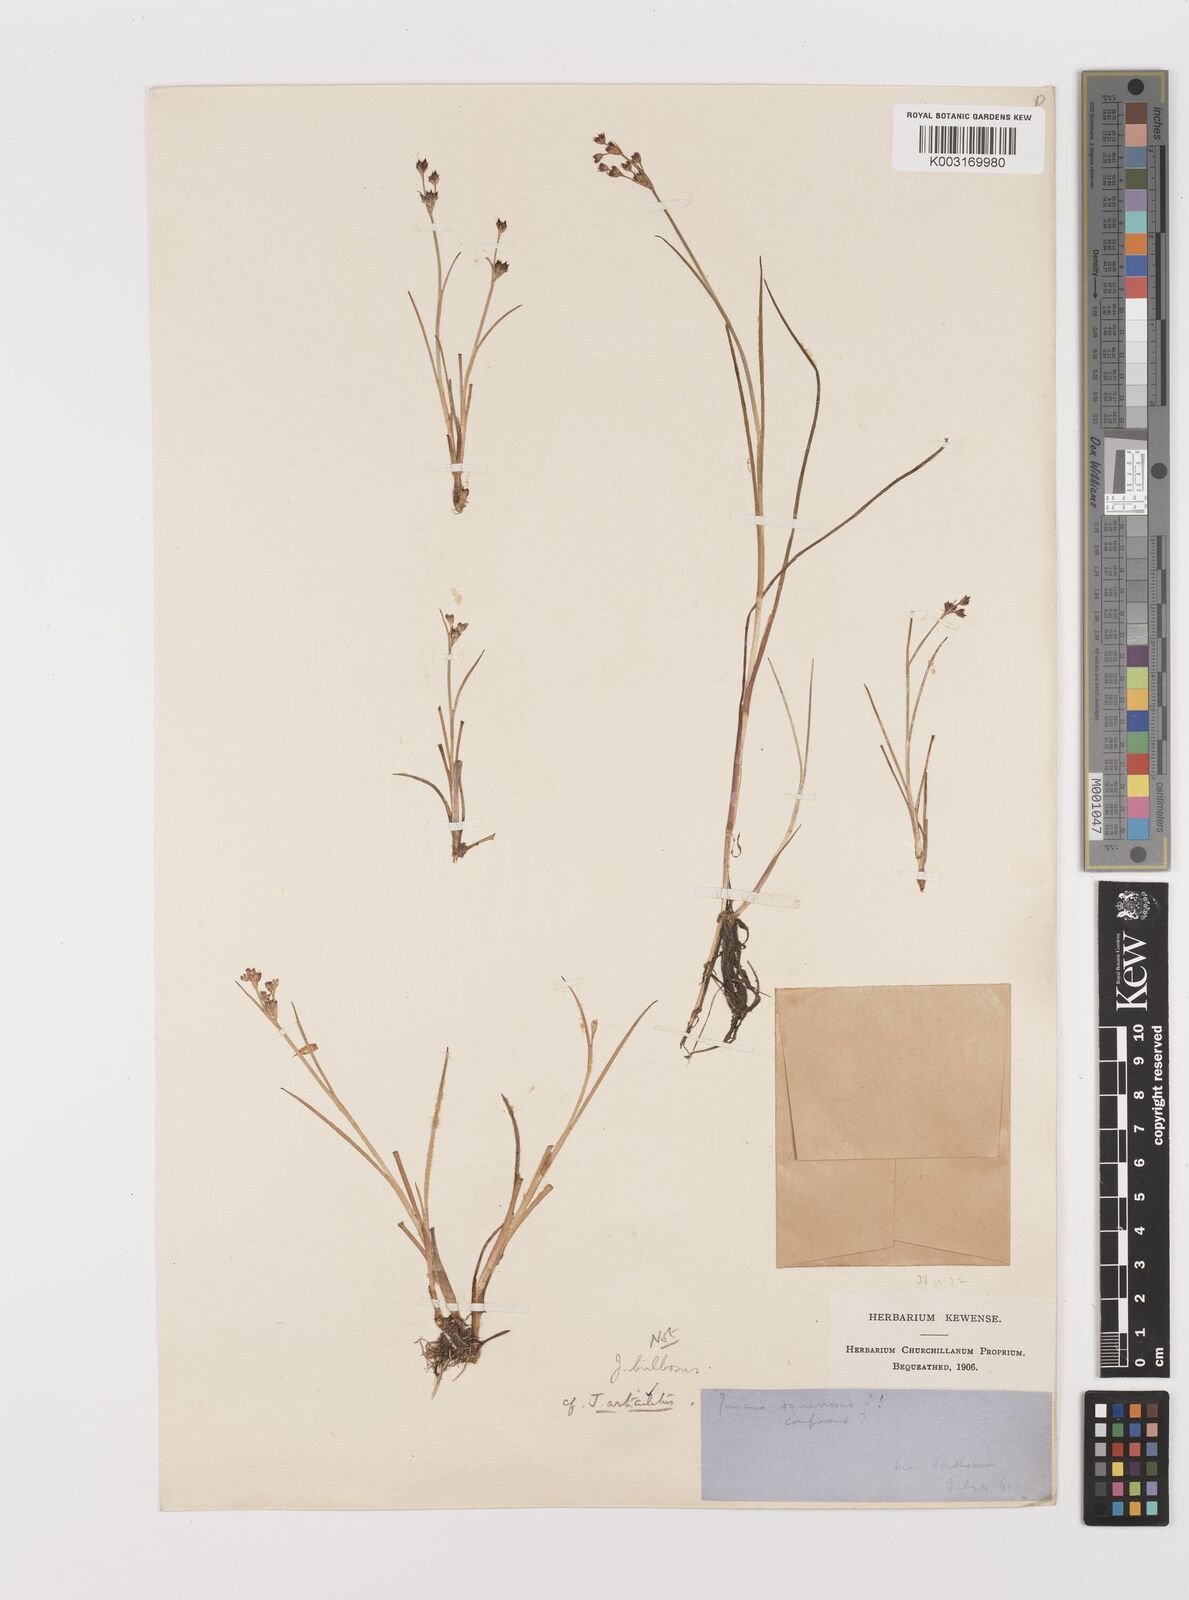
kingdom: Plantae
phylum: Tracheophyta
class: Liliopsida
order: Poales
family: Juncaceae
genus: Juncus
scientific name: Juncus articulatus
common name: Jointed rush
